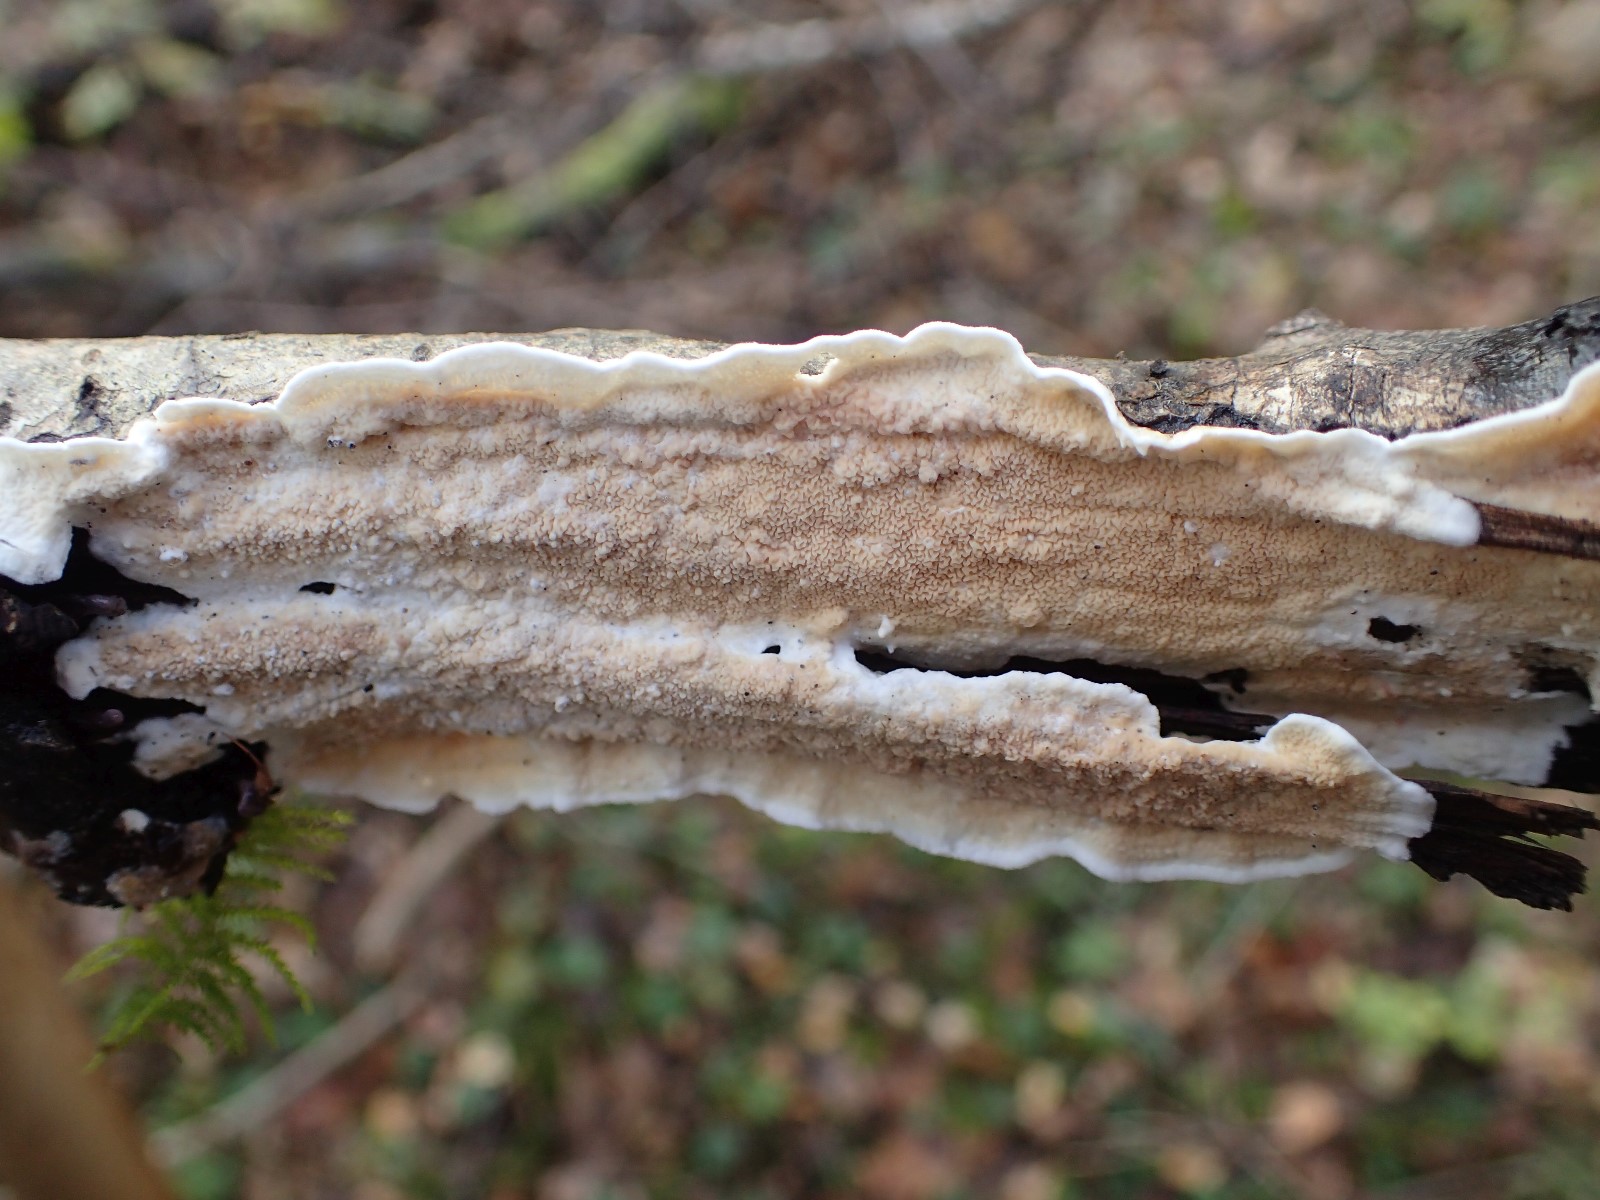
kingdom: Fungi
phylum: Basidiomycota
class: Agaricomycetes
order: Polyporales
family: Irpicaceae
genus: Byssomerulius
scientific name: Byssomerulius corium
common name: læder-åresvamp
